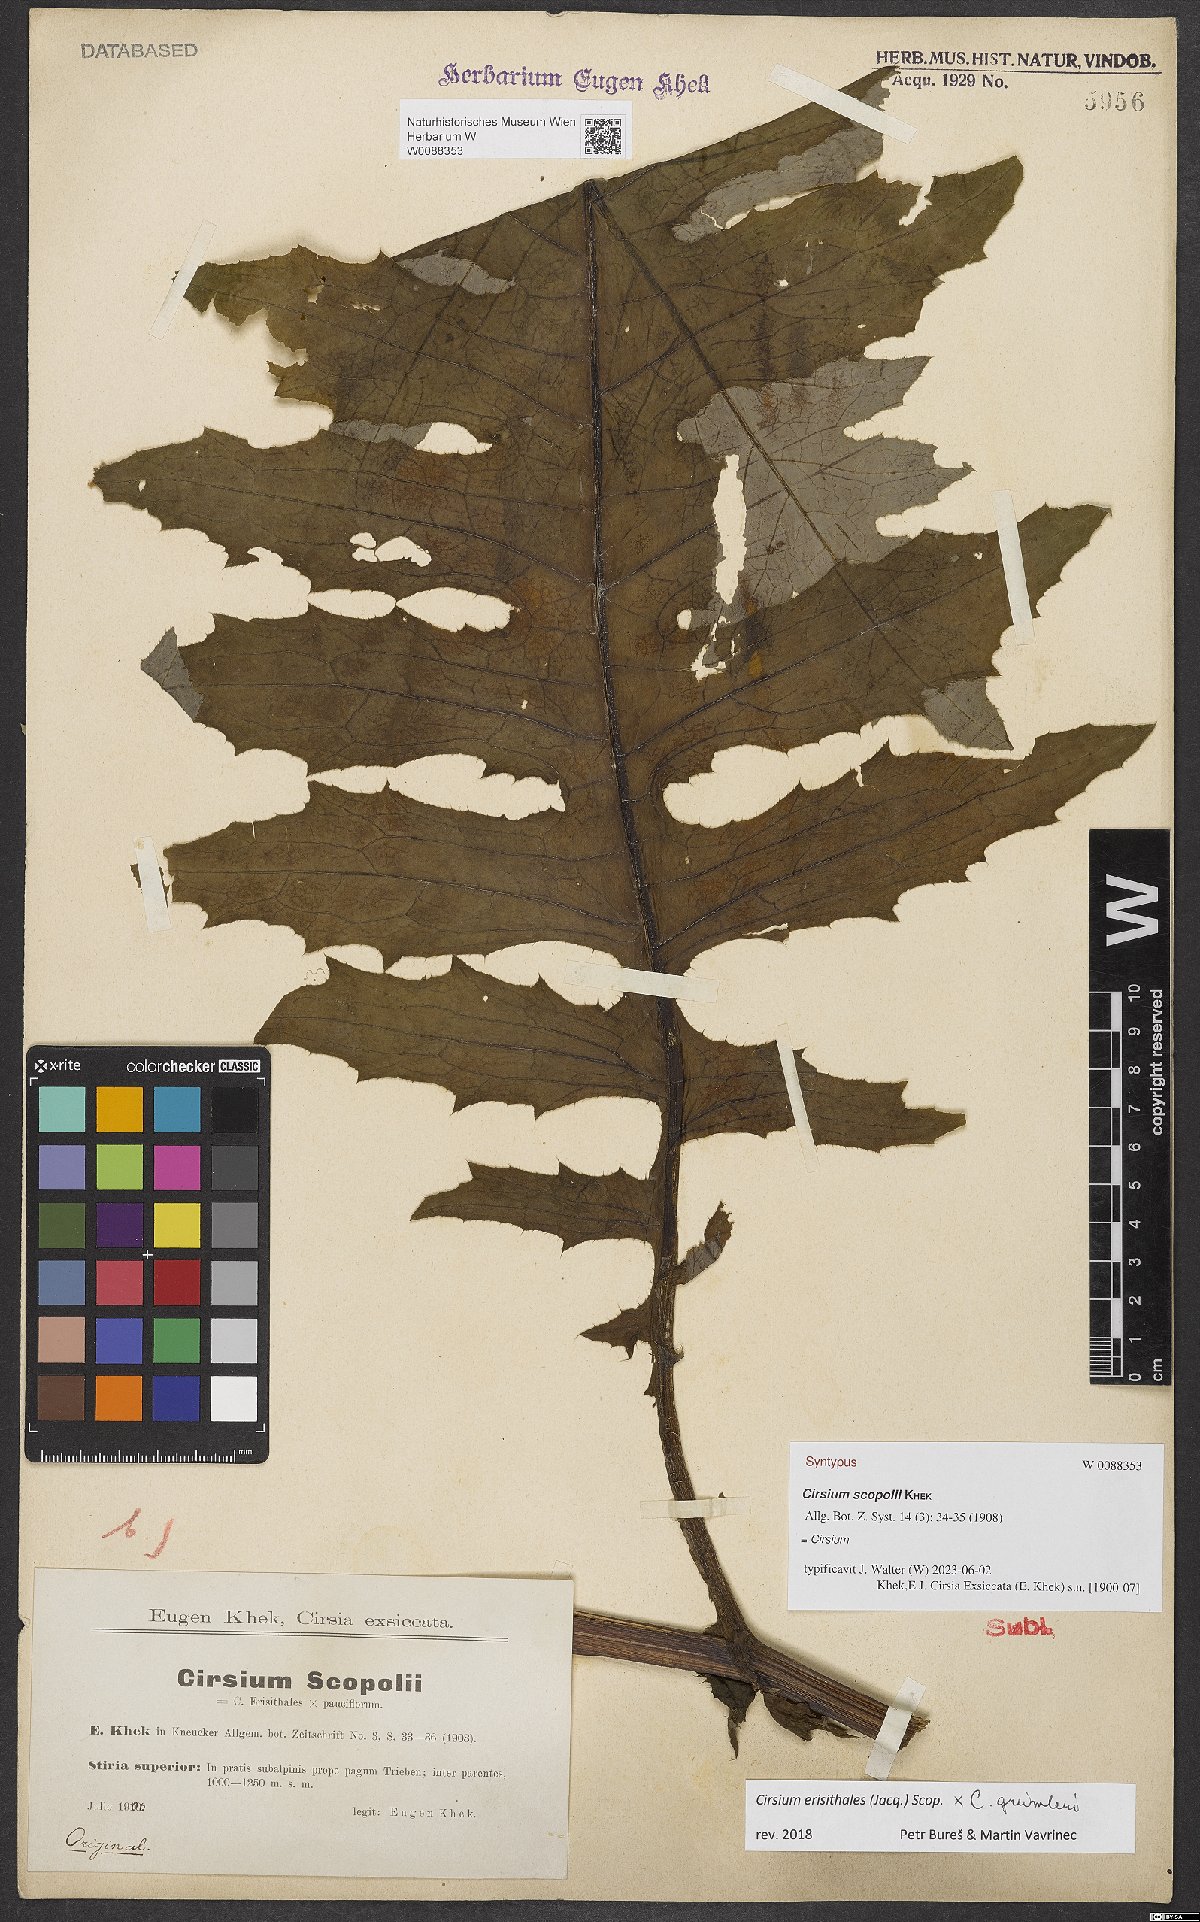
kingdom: Plantae
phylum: Tracheophyta
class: Magnoliopsida
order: Asterales
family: Asteraceae
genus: Cirsium
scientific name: Cirsium scopolii
